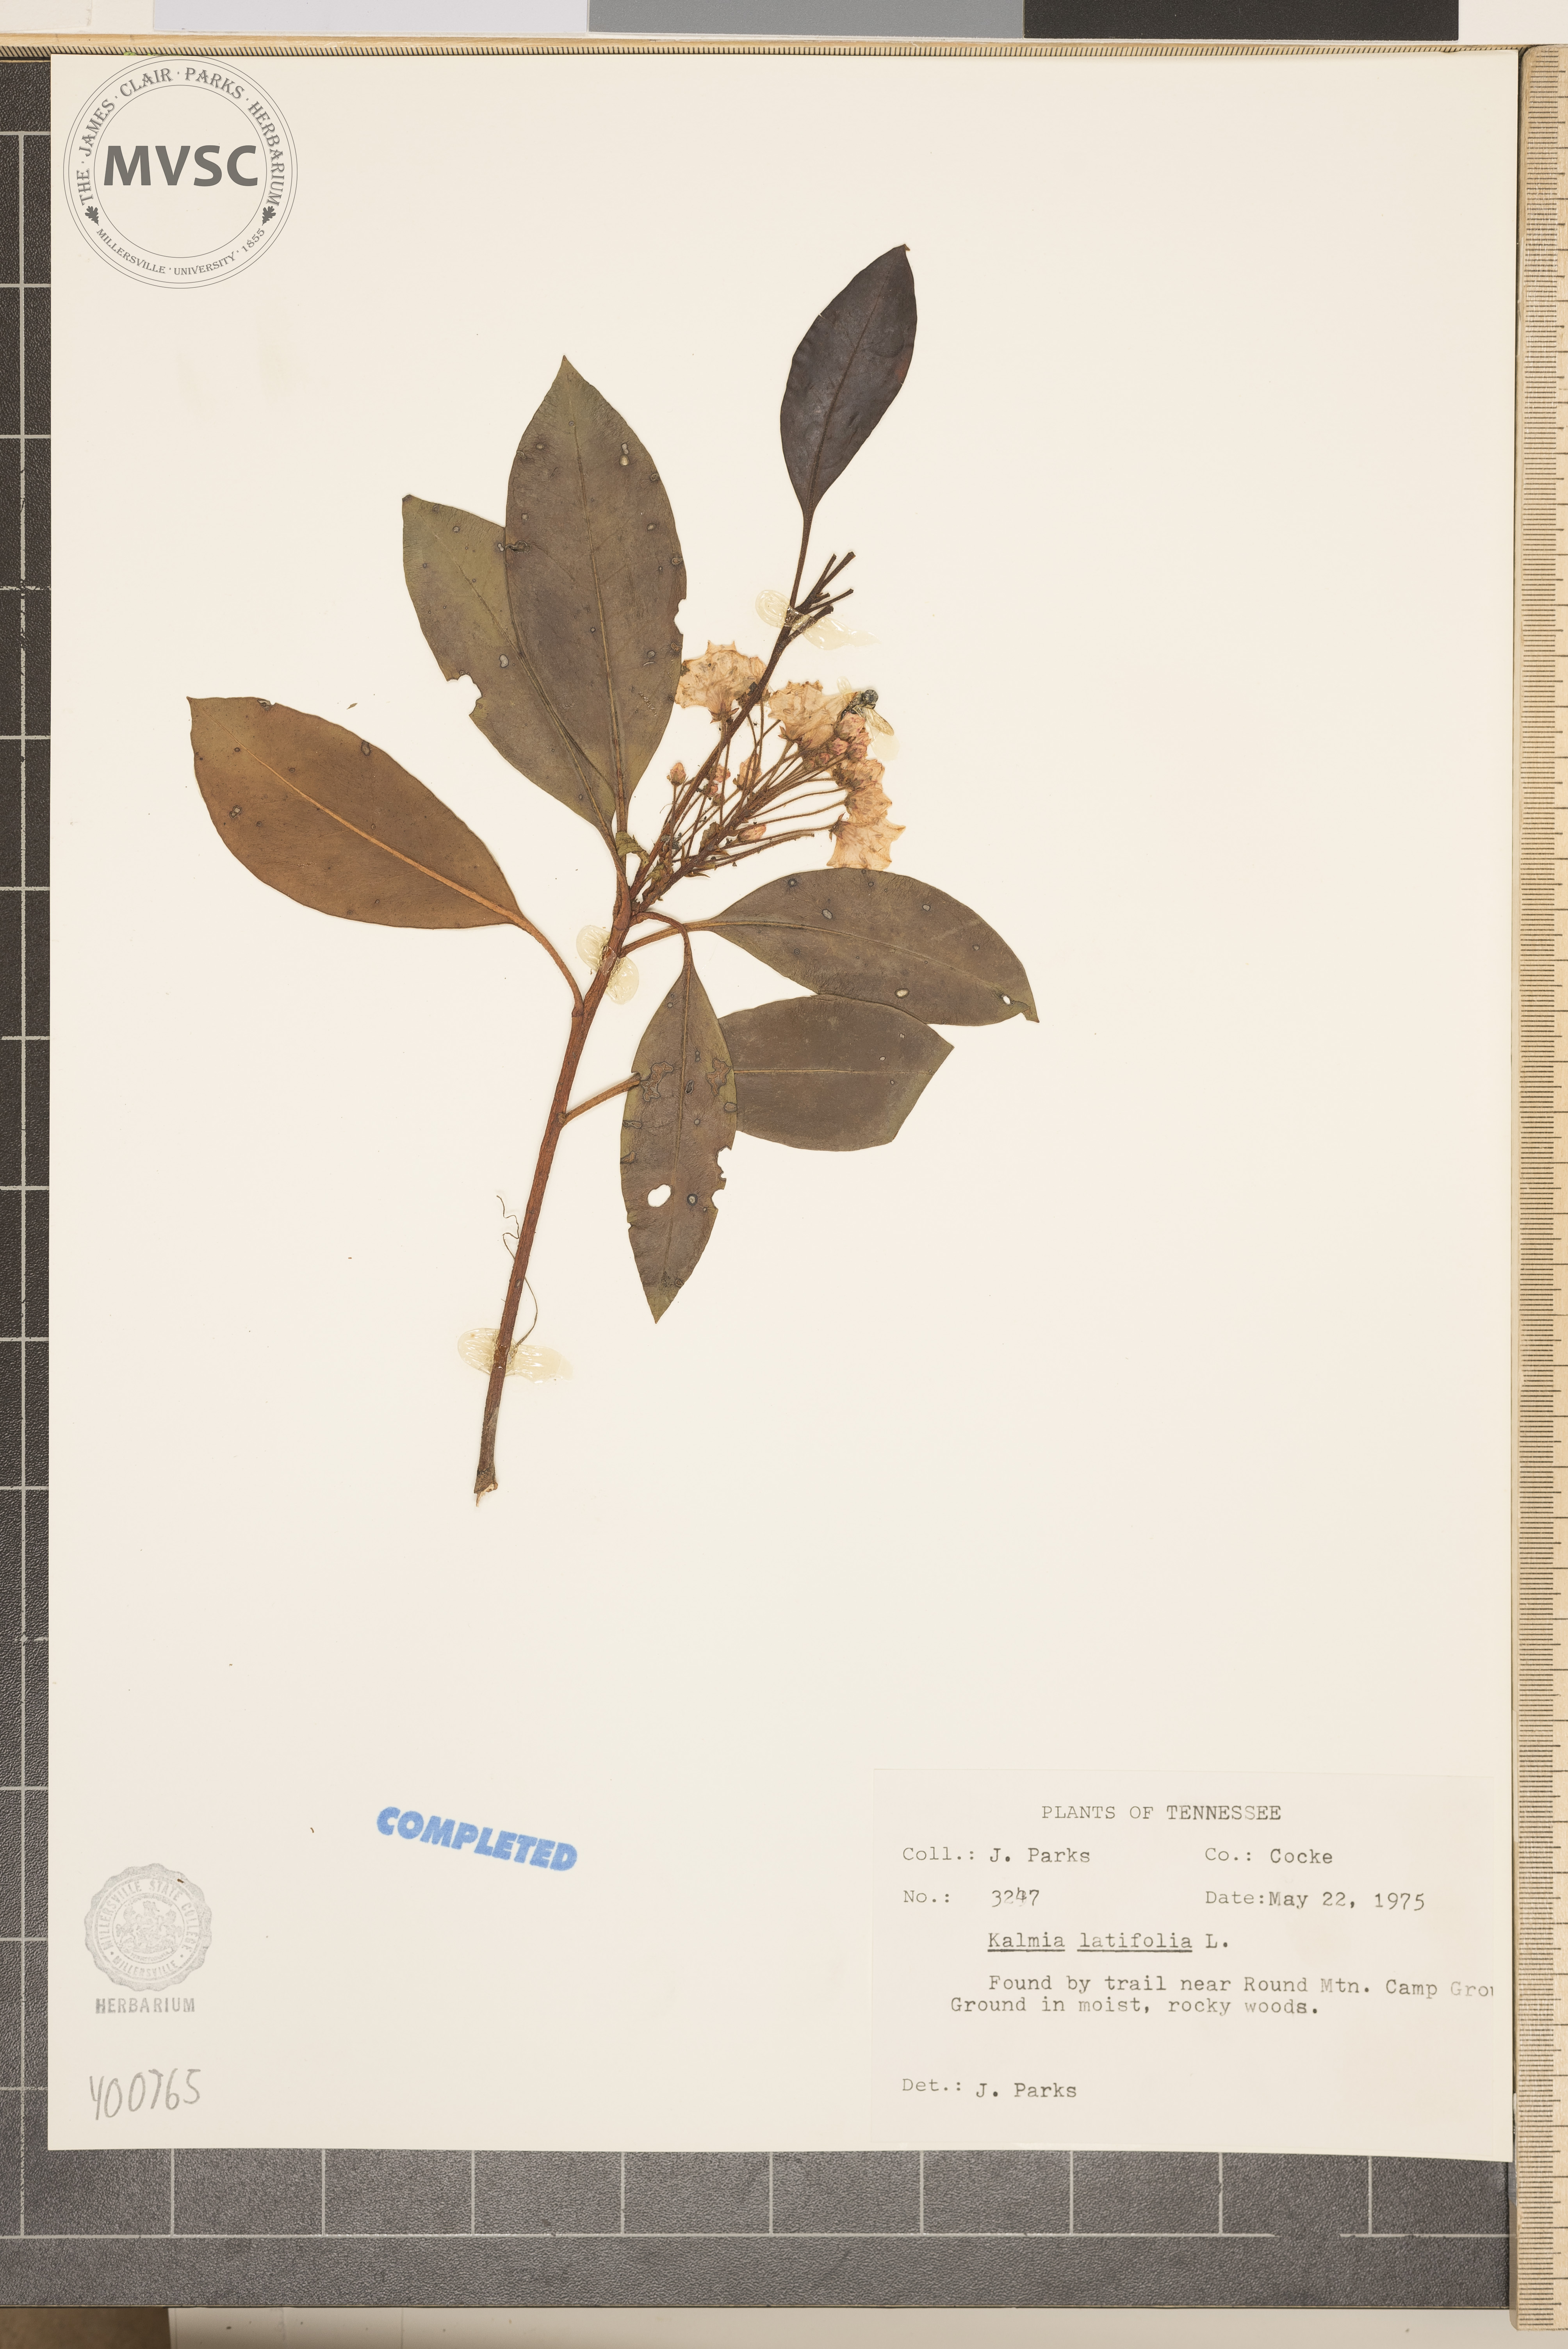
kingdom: Plantae
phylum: Tracheophyta
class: Magnoliopsida
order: Ericales
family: Ericaceae
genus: Kalmia
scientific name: Kalmia latifolia
